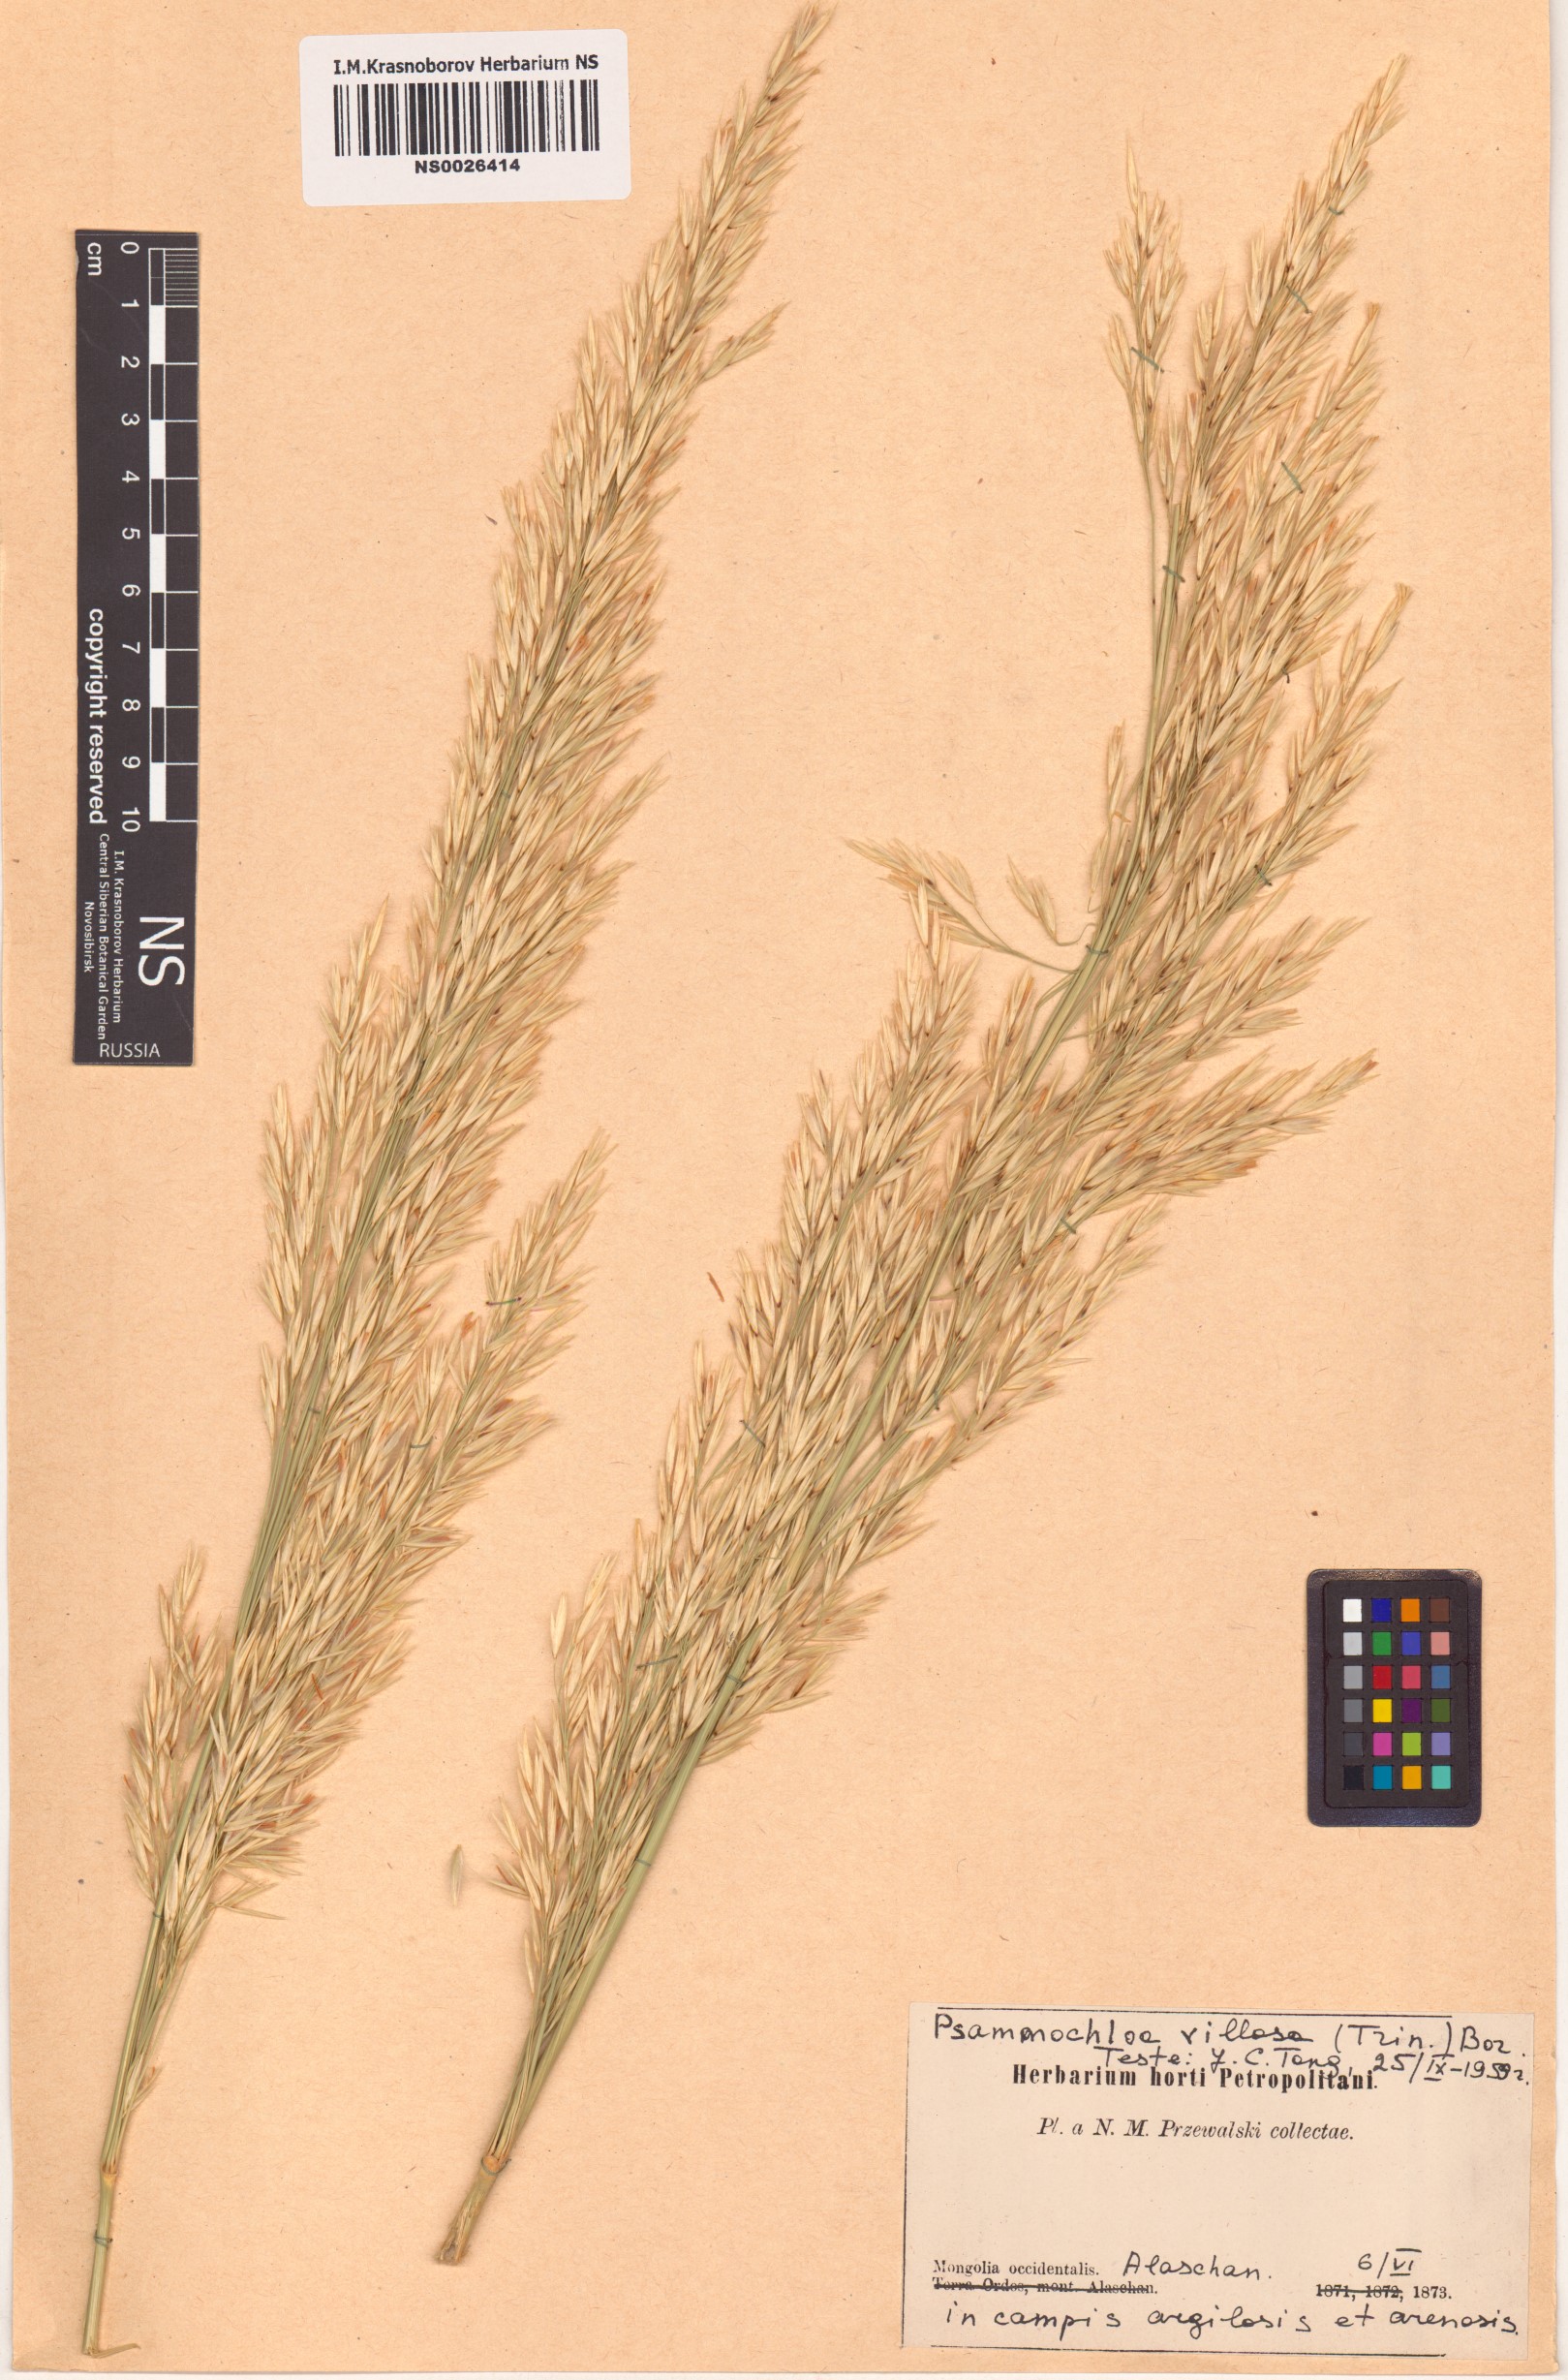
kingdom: Plantae
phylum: Tracheophyta
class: Liliopsida
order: Poales
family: Poaceae
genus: Psammochloa
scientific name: Psammochloa villosa
